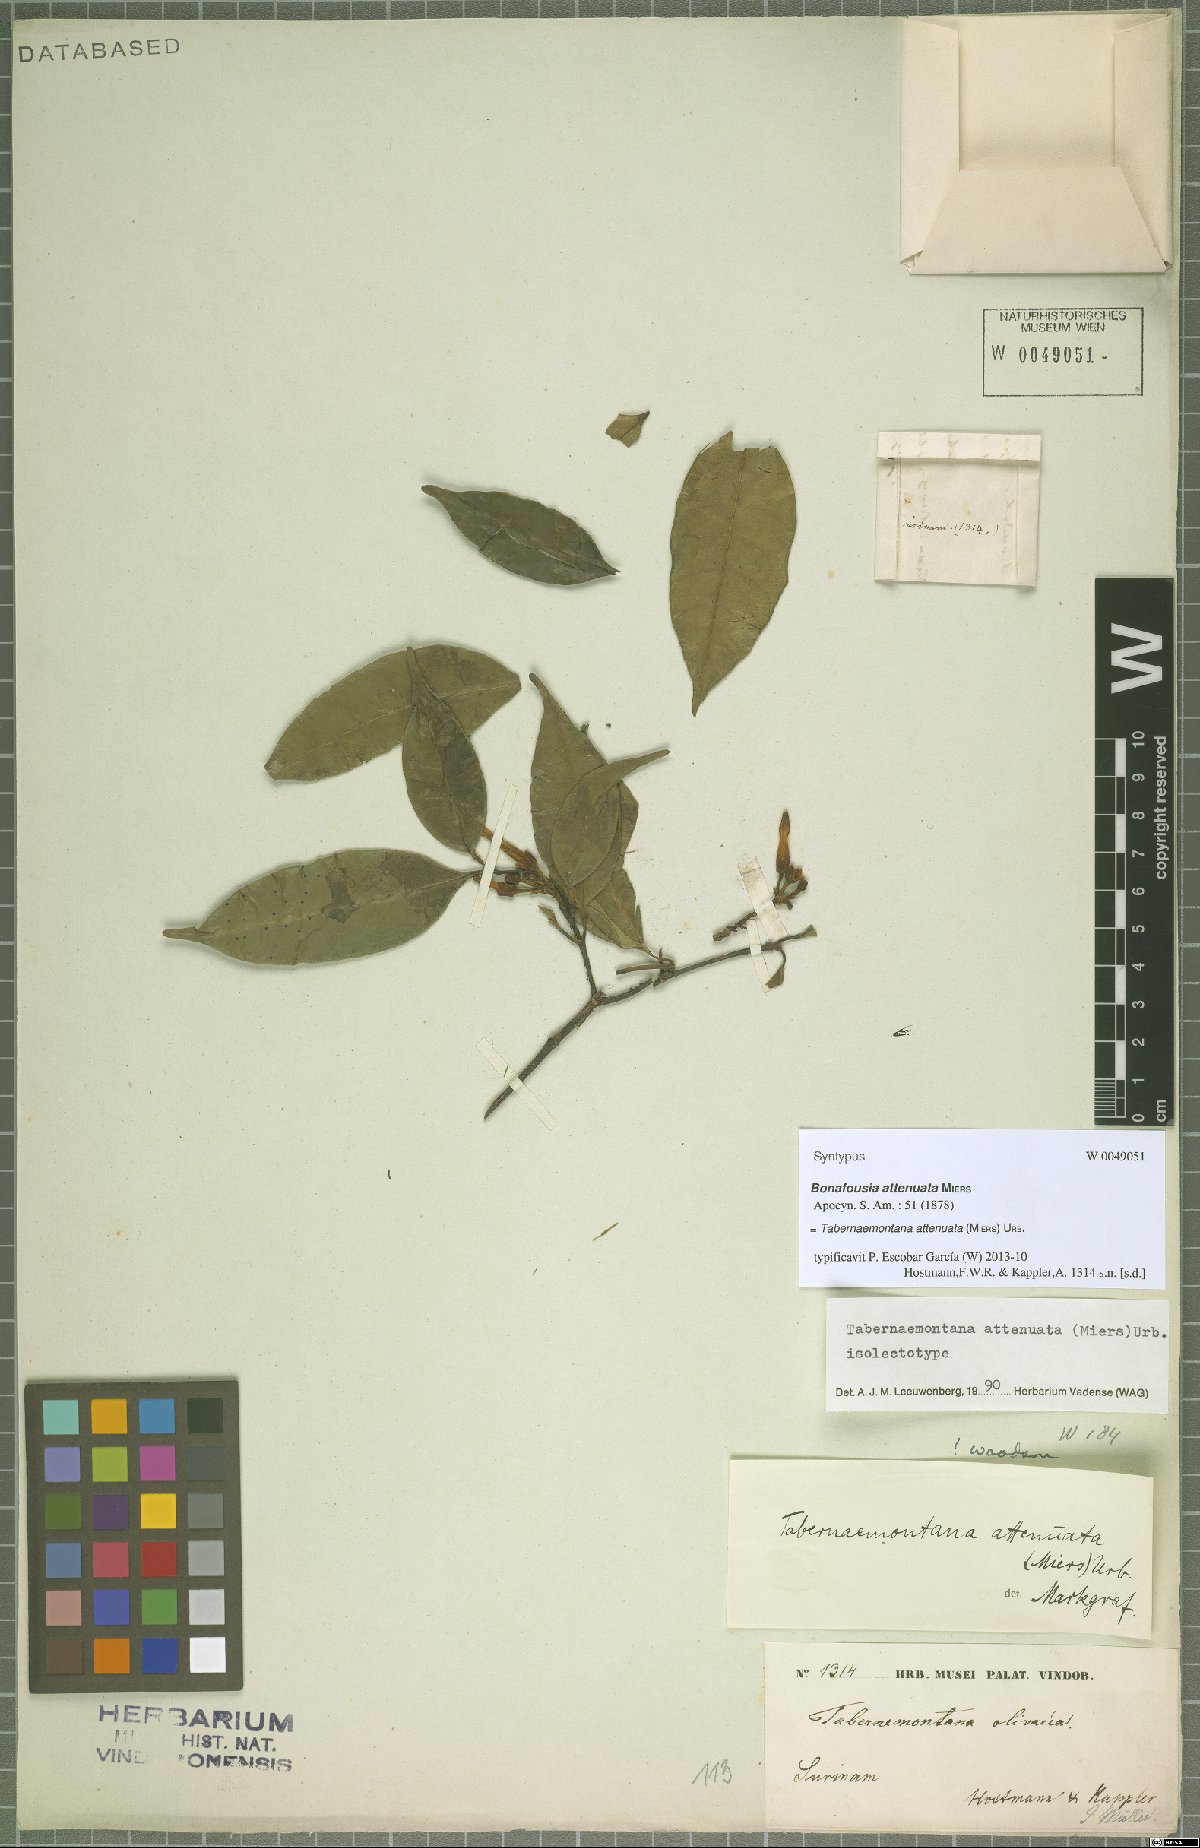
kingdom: Plantae
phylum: Tracheophyta
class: Magnoliopsida
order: Gentianales
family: Apocynaceae
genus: Tabernaemontana
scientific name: Tabernaemontana attenuata
